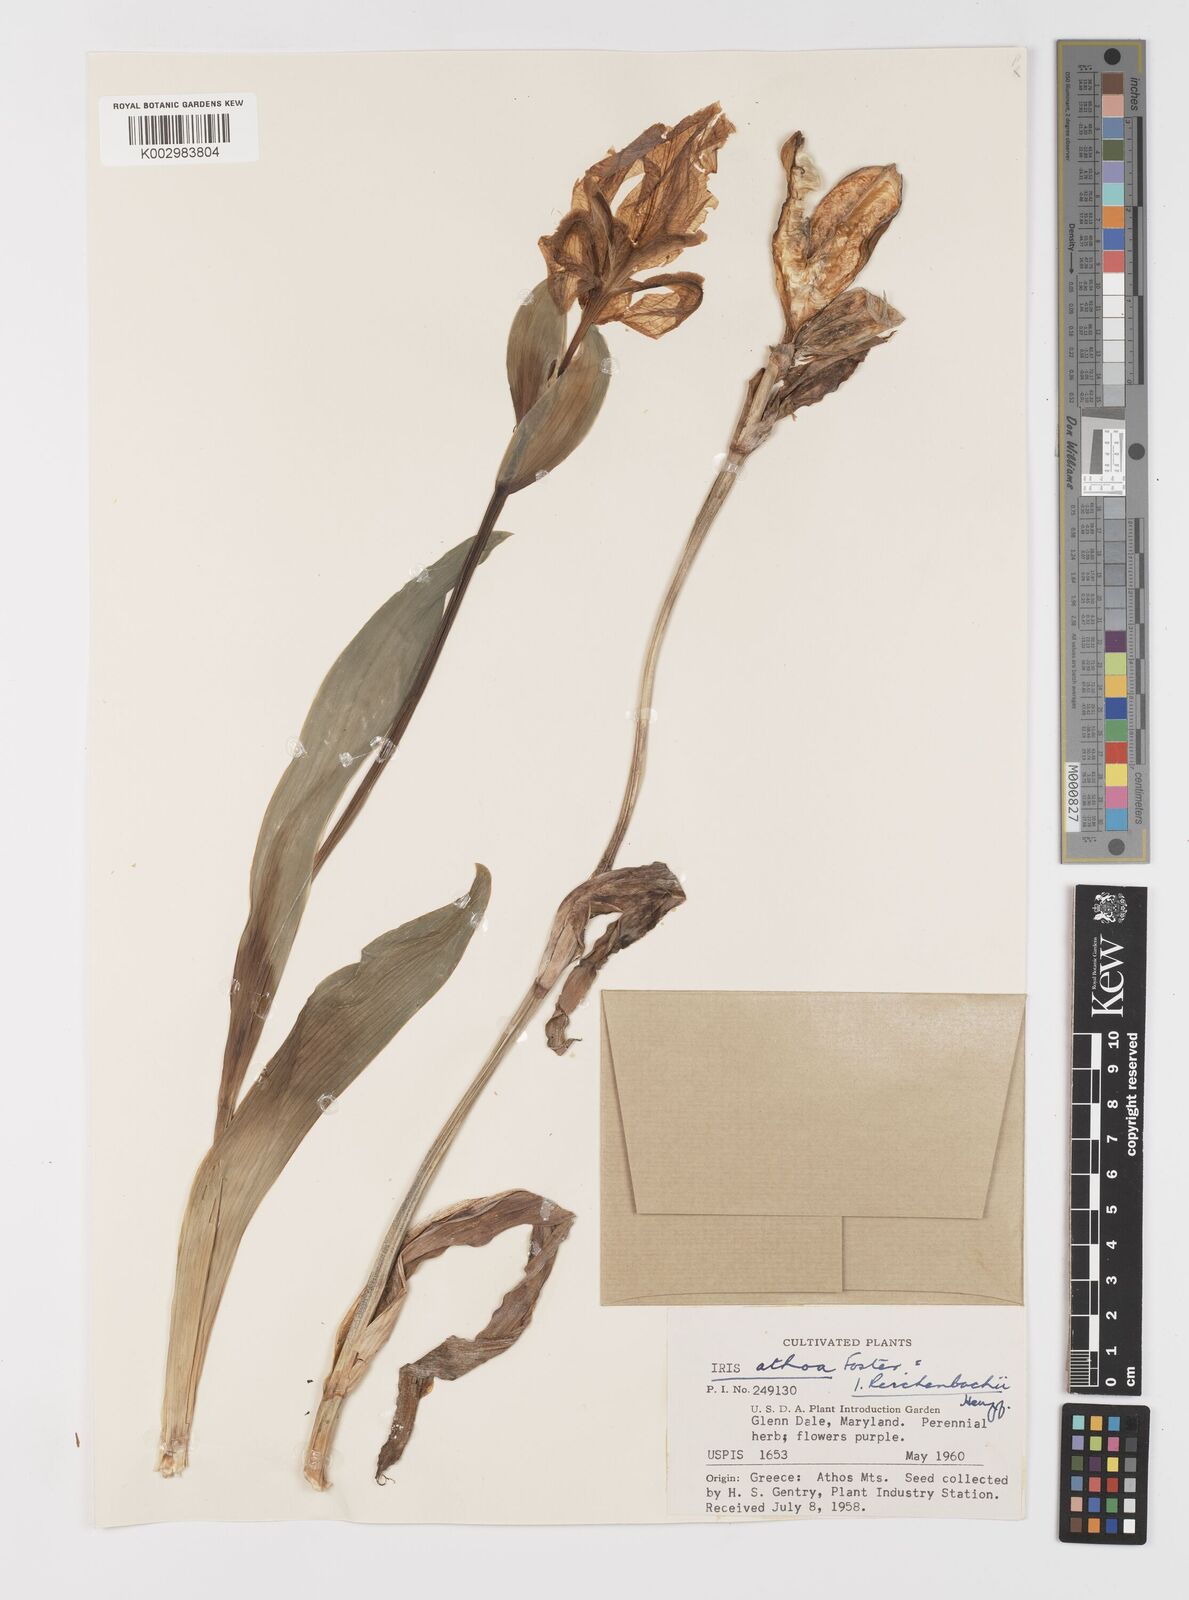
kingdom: Plantae
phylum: Tracheophyta
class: Liliopsida
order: Asparagales
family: Iridaceae
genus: Iris
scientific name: Iris reichenbachii
